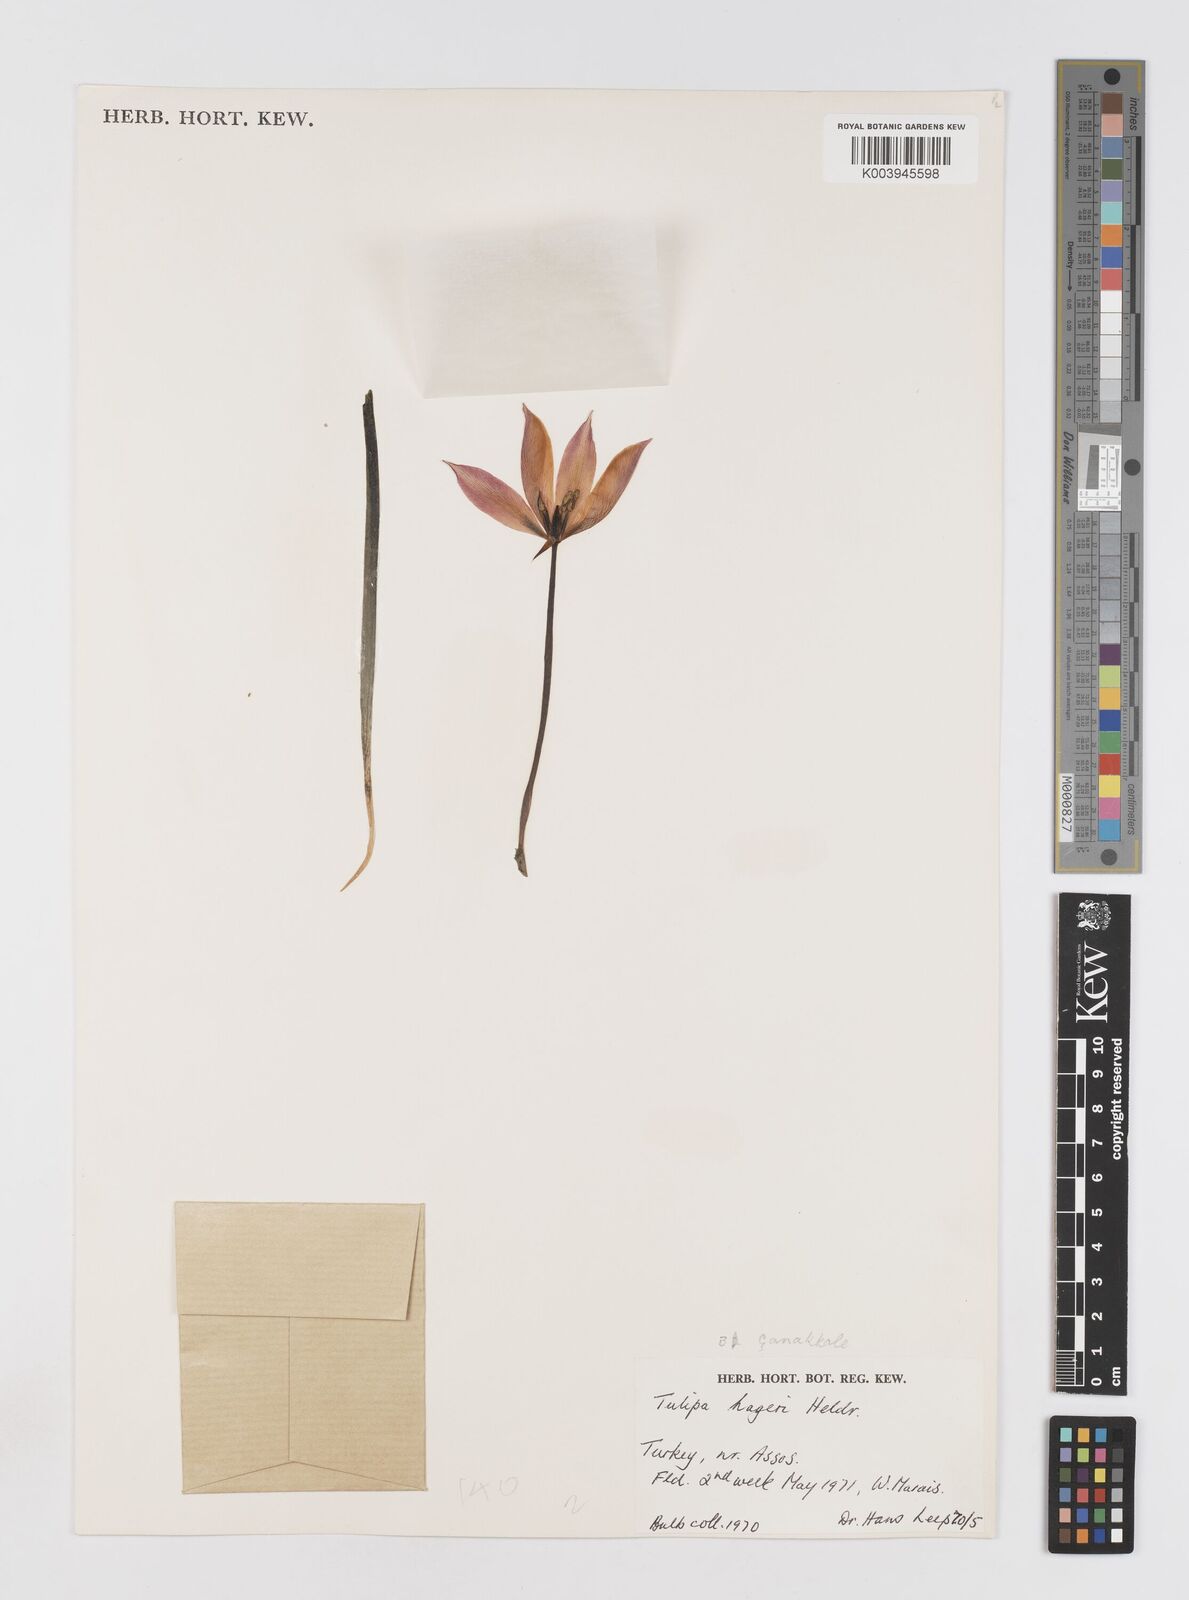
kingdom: Plantae
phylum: Tracheophyta
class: Liliopsida
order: Liliales
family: Liliaceae
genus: Tulipa
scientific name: Tulipa orphanidea
